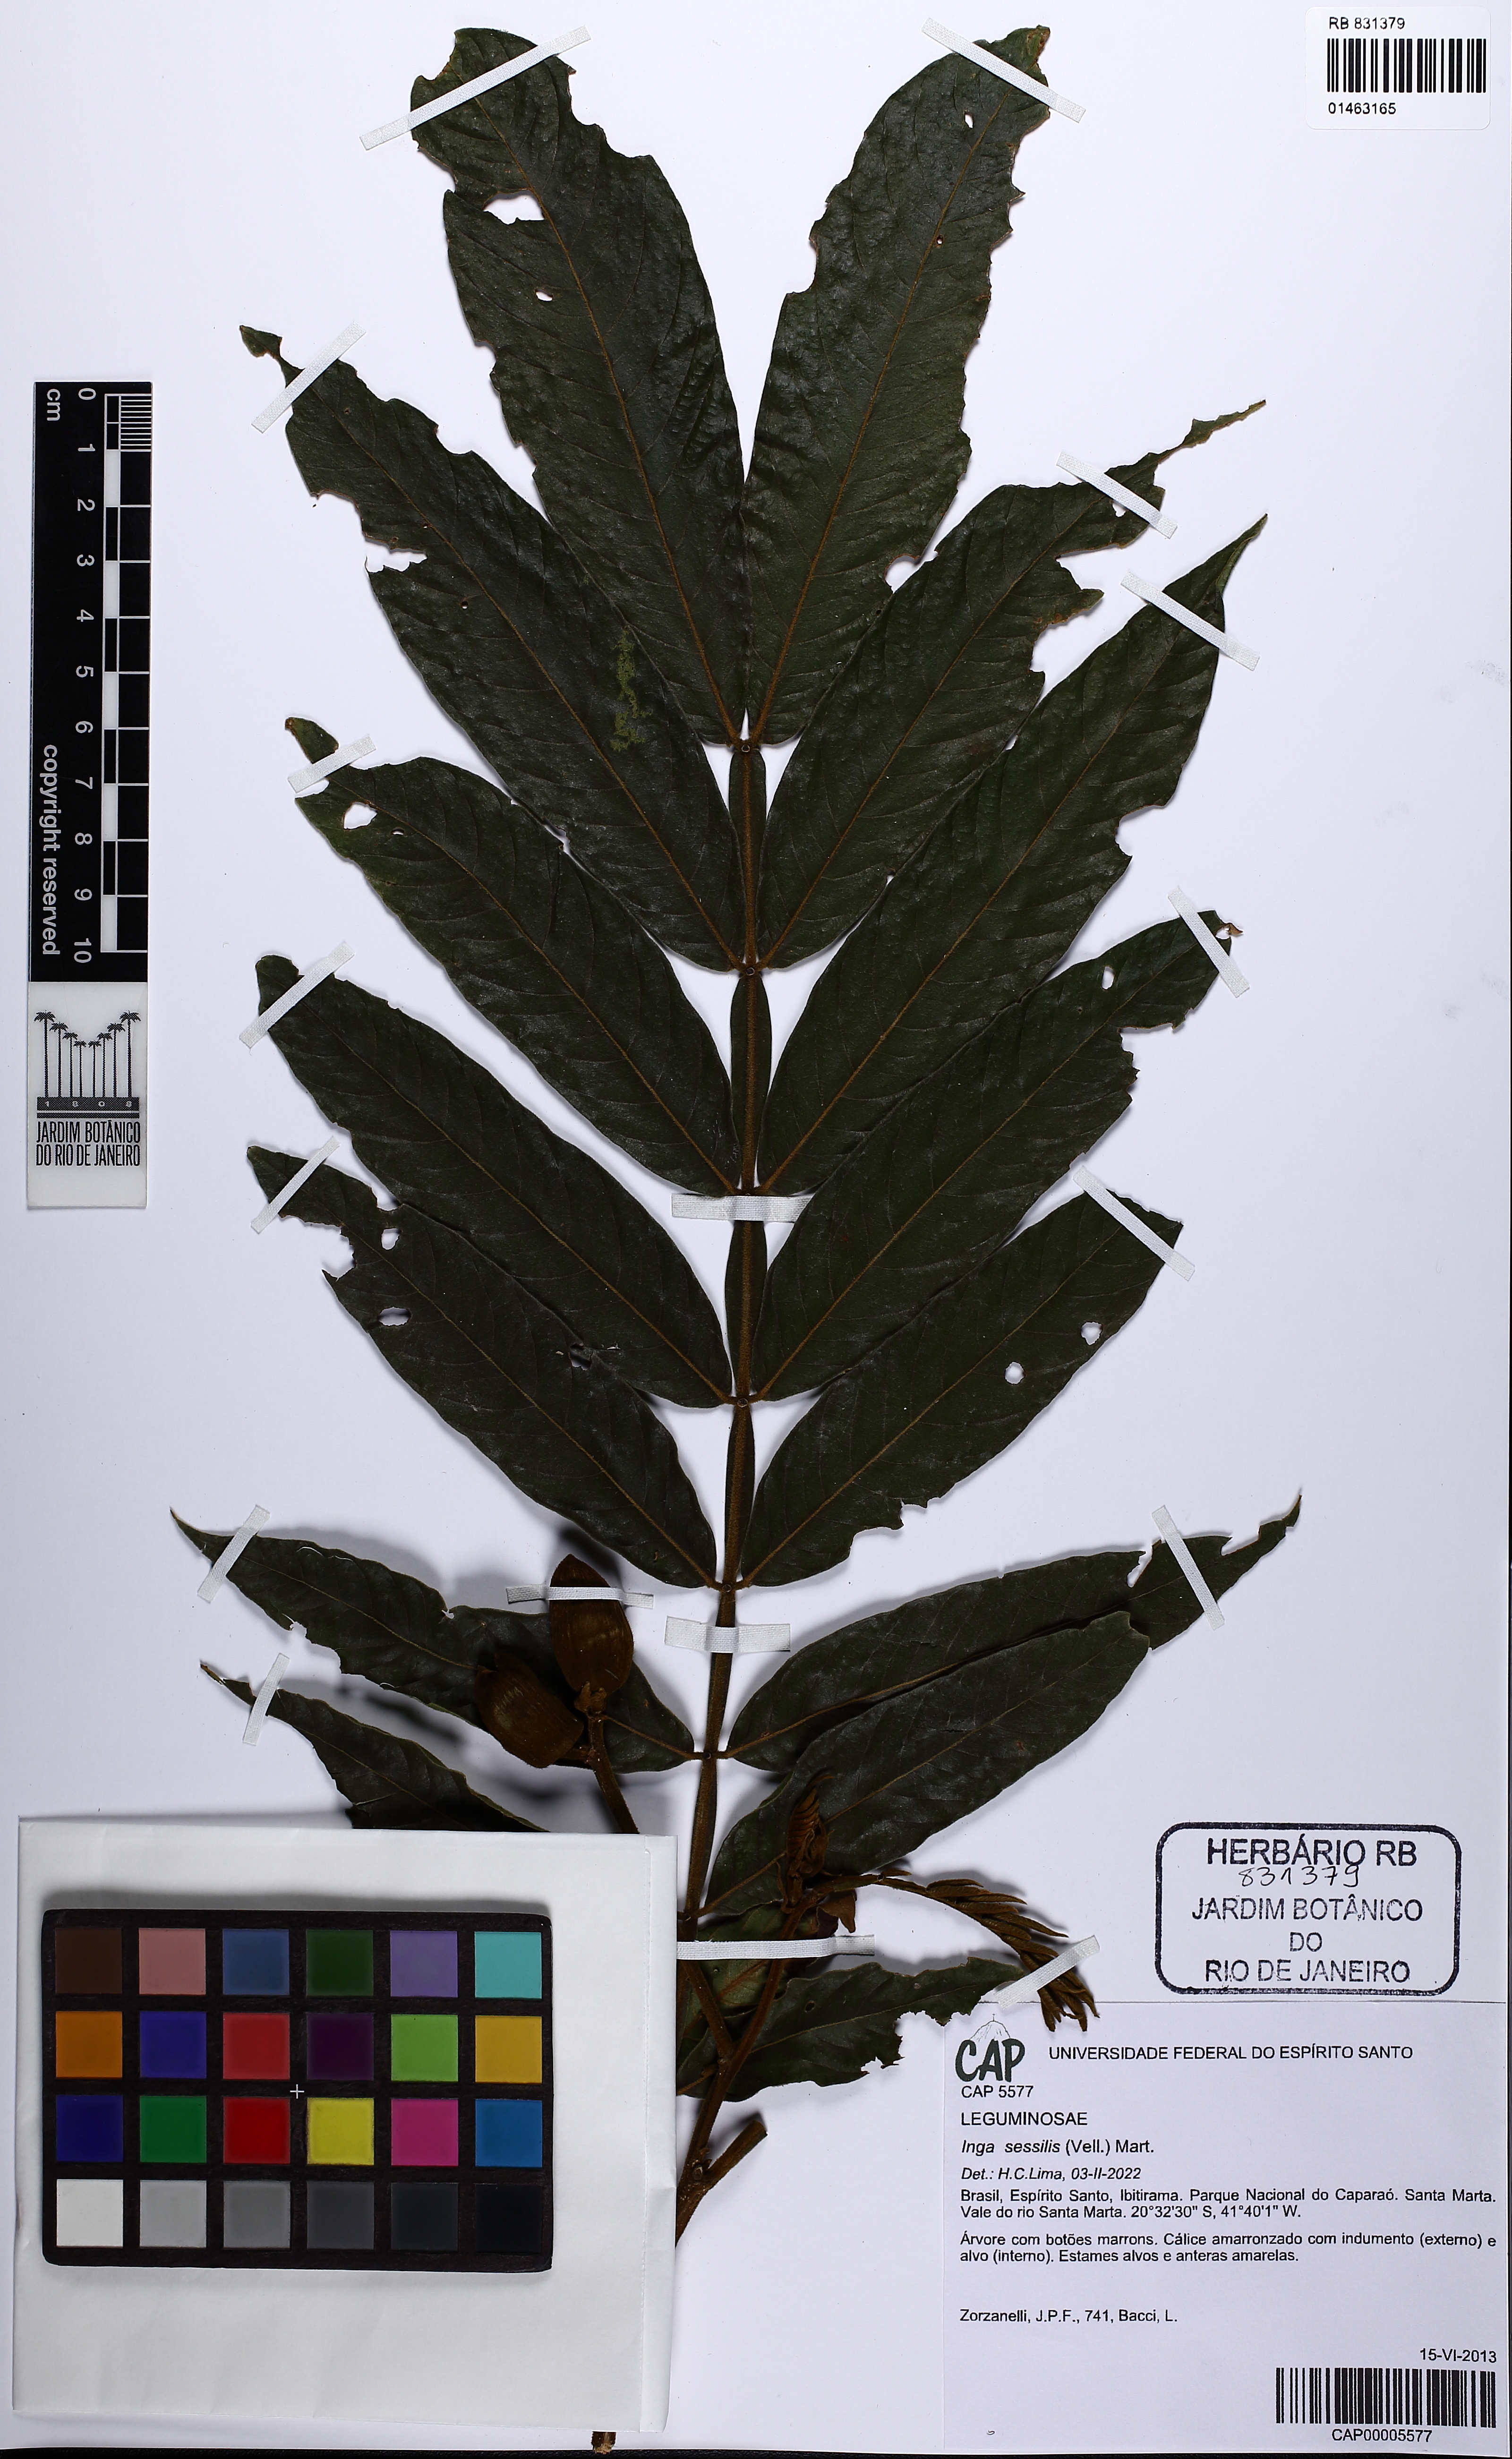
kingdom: Plantae
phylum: Tracheophyta
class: Magnoliopsida
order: Fabales
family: Fabaceae
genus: Inga
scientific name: Inga sessilis
